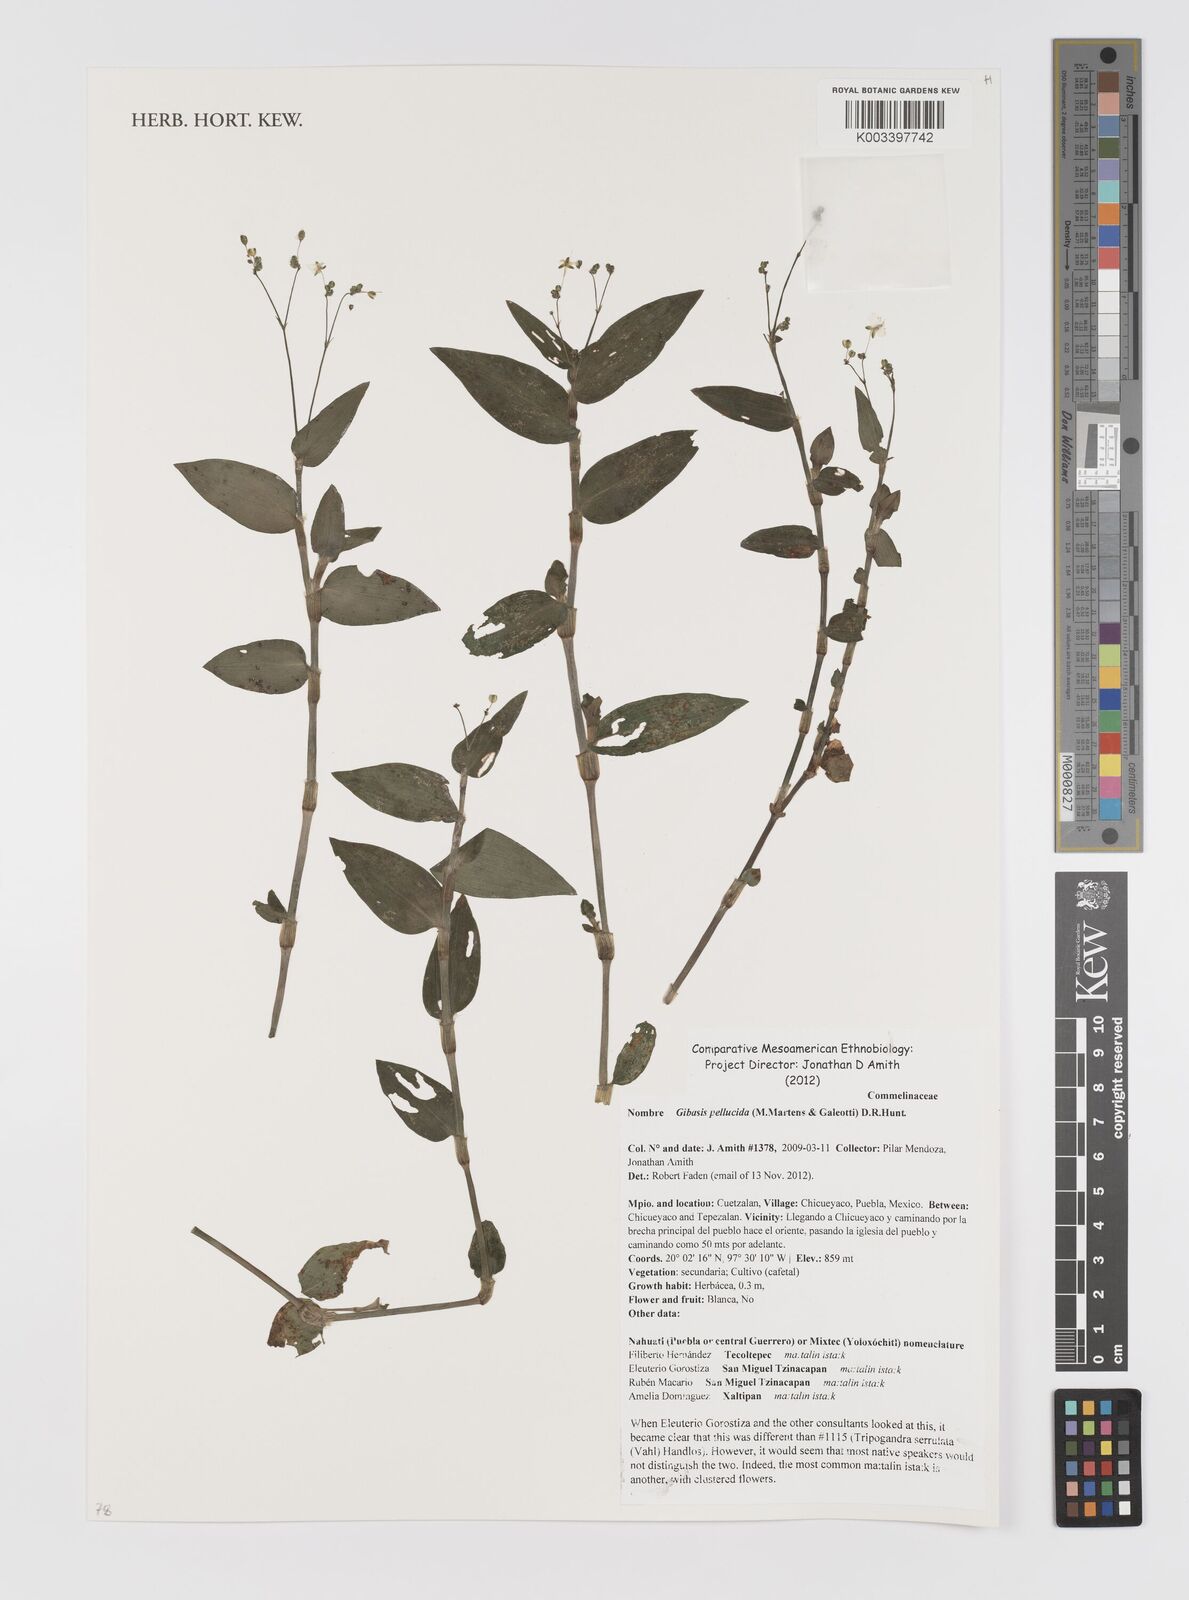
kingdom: Plantae
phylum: Tracheophyta
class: Liliopsida
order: Commelinales
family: Commelinaceae
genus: Gibasis
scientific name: Gibasis pellucida
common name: Dotted bridalveil
